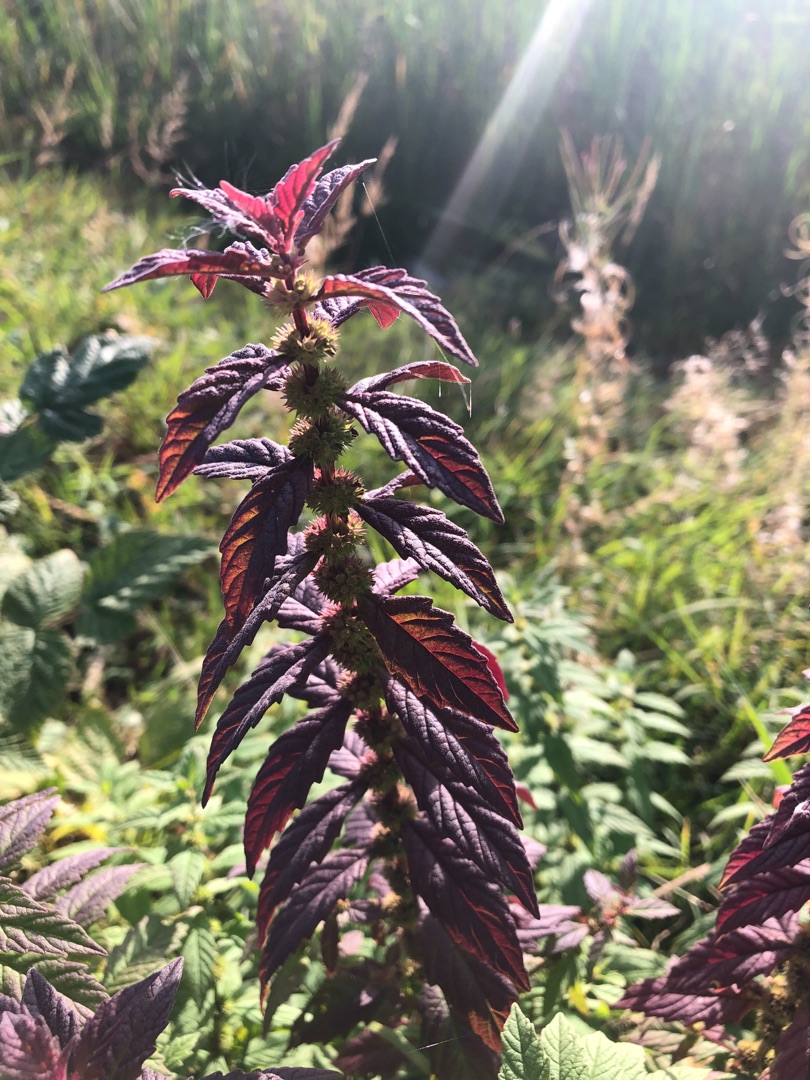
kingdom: Plantae
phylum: Tracheophyta
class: Magnoliopsida
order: Lamiales
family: Lamiaceae
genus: Lycopus
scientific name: Lycopus europaeus
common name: Sværtevæld
